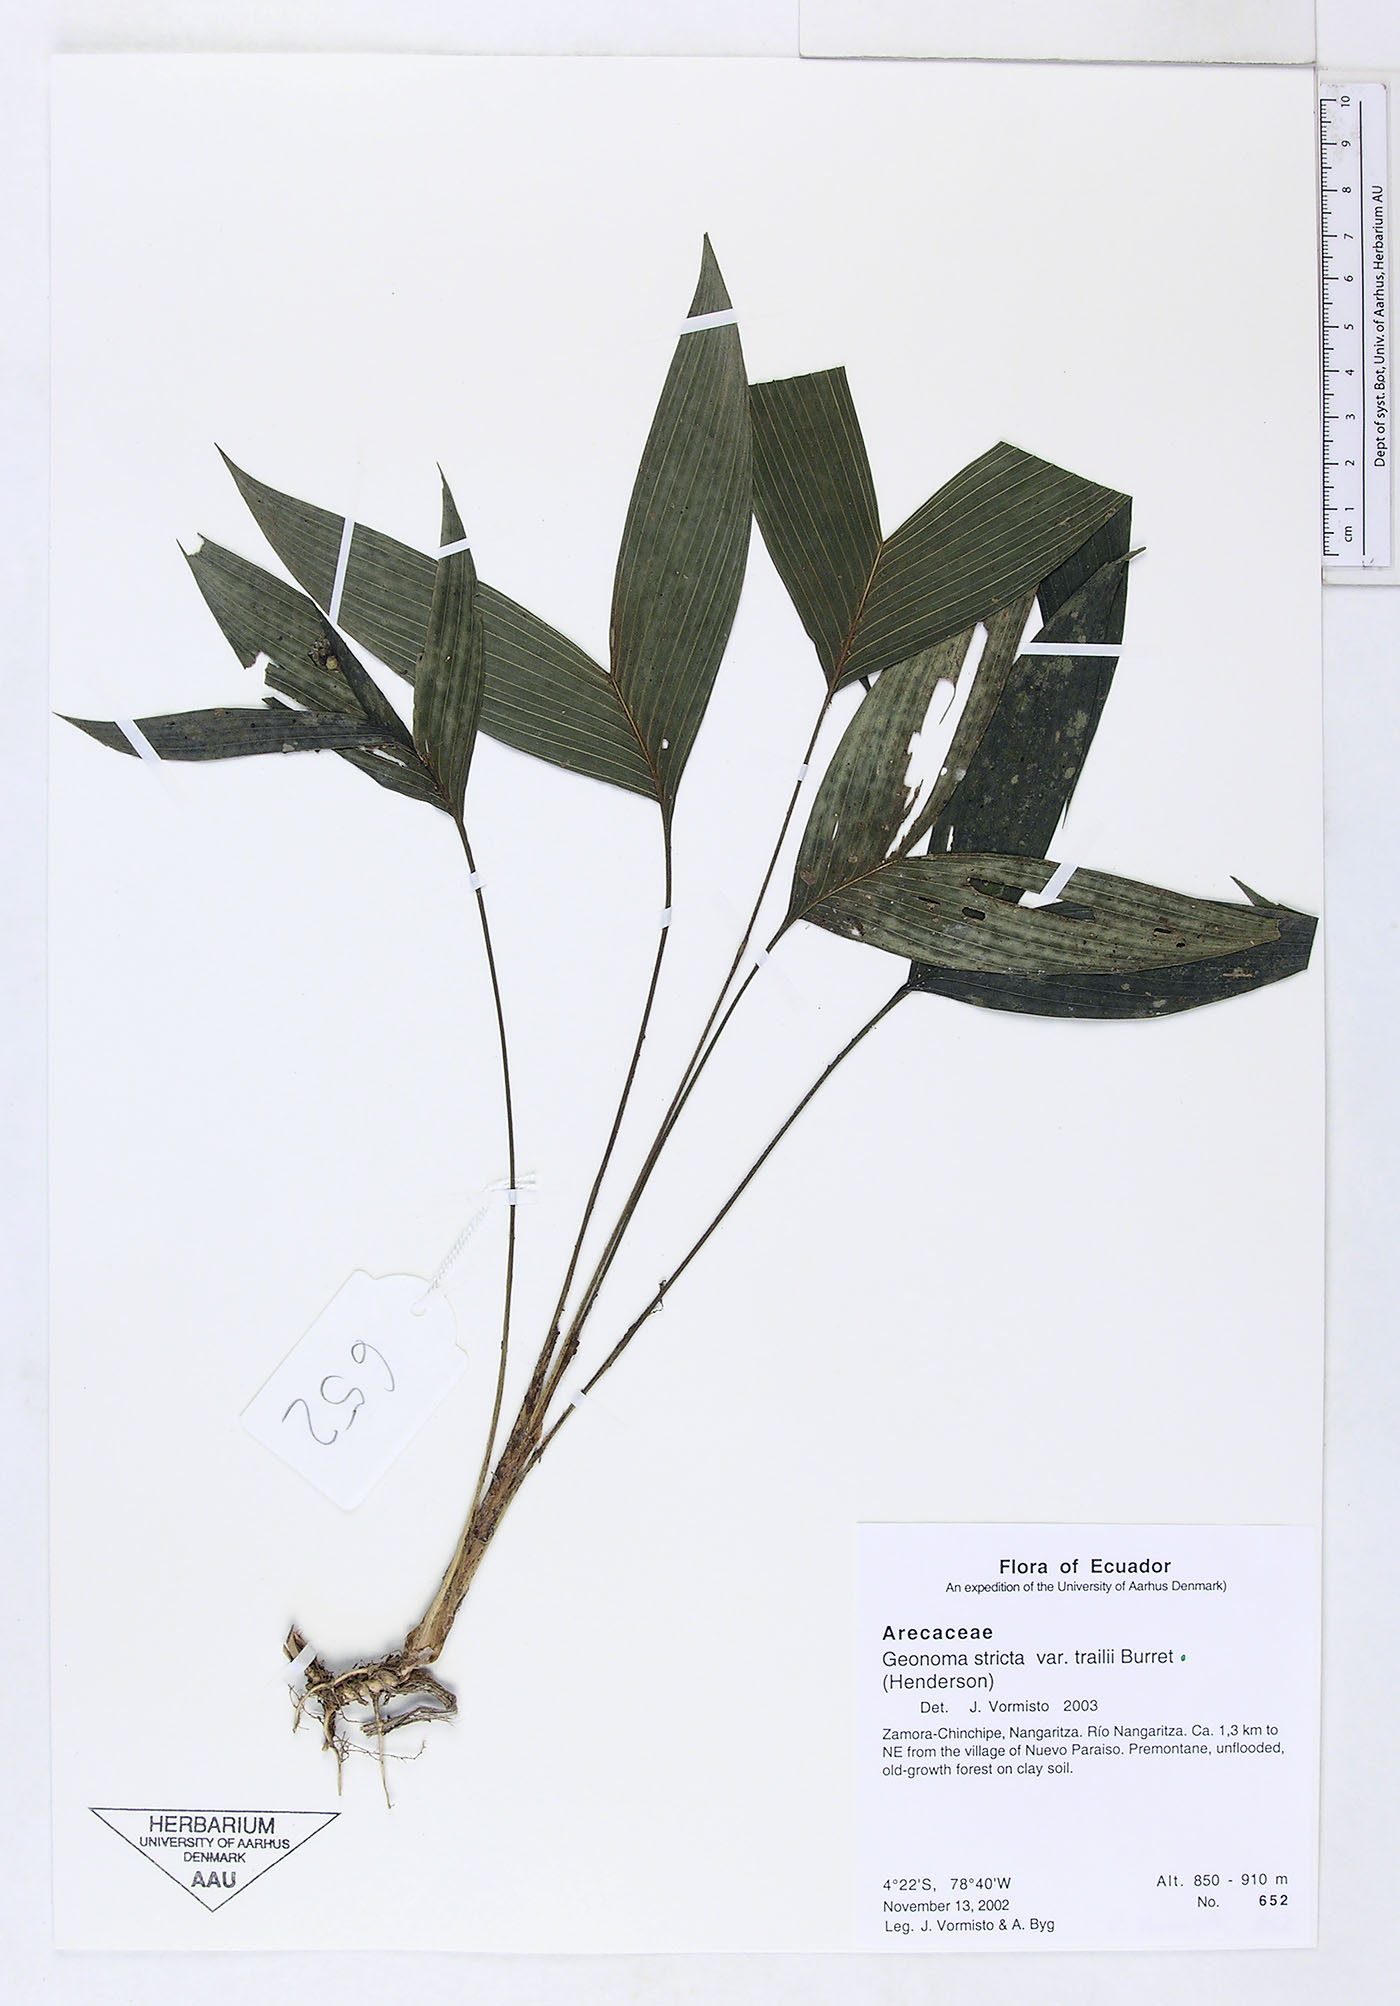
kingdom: Plantae
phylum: Tracheophyta
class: Liliopsida
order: Arecales
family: Arecaceae
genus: Geonoma
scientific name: Geonoma stricta
